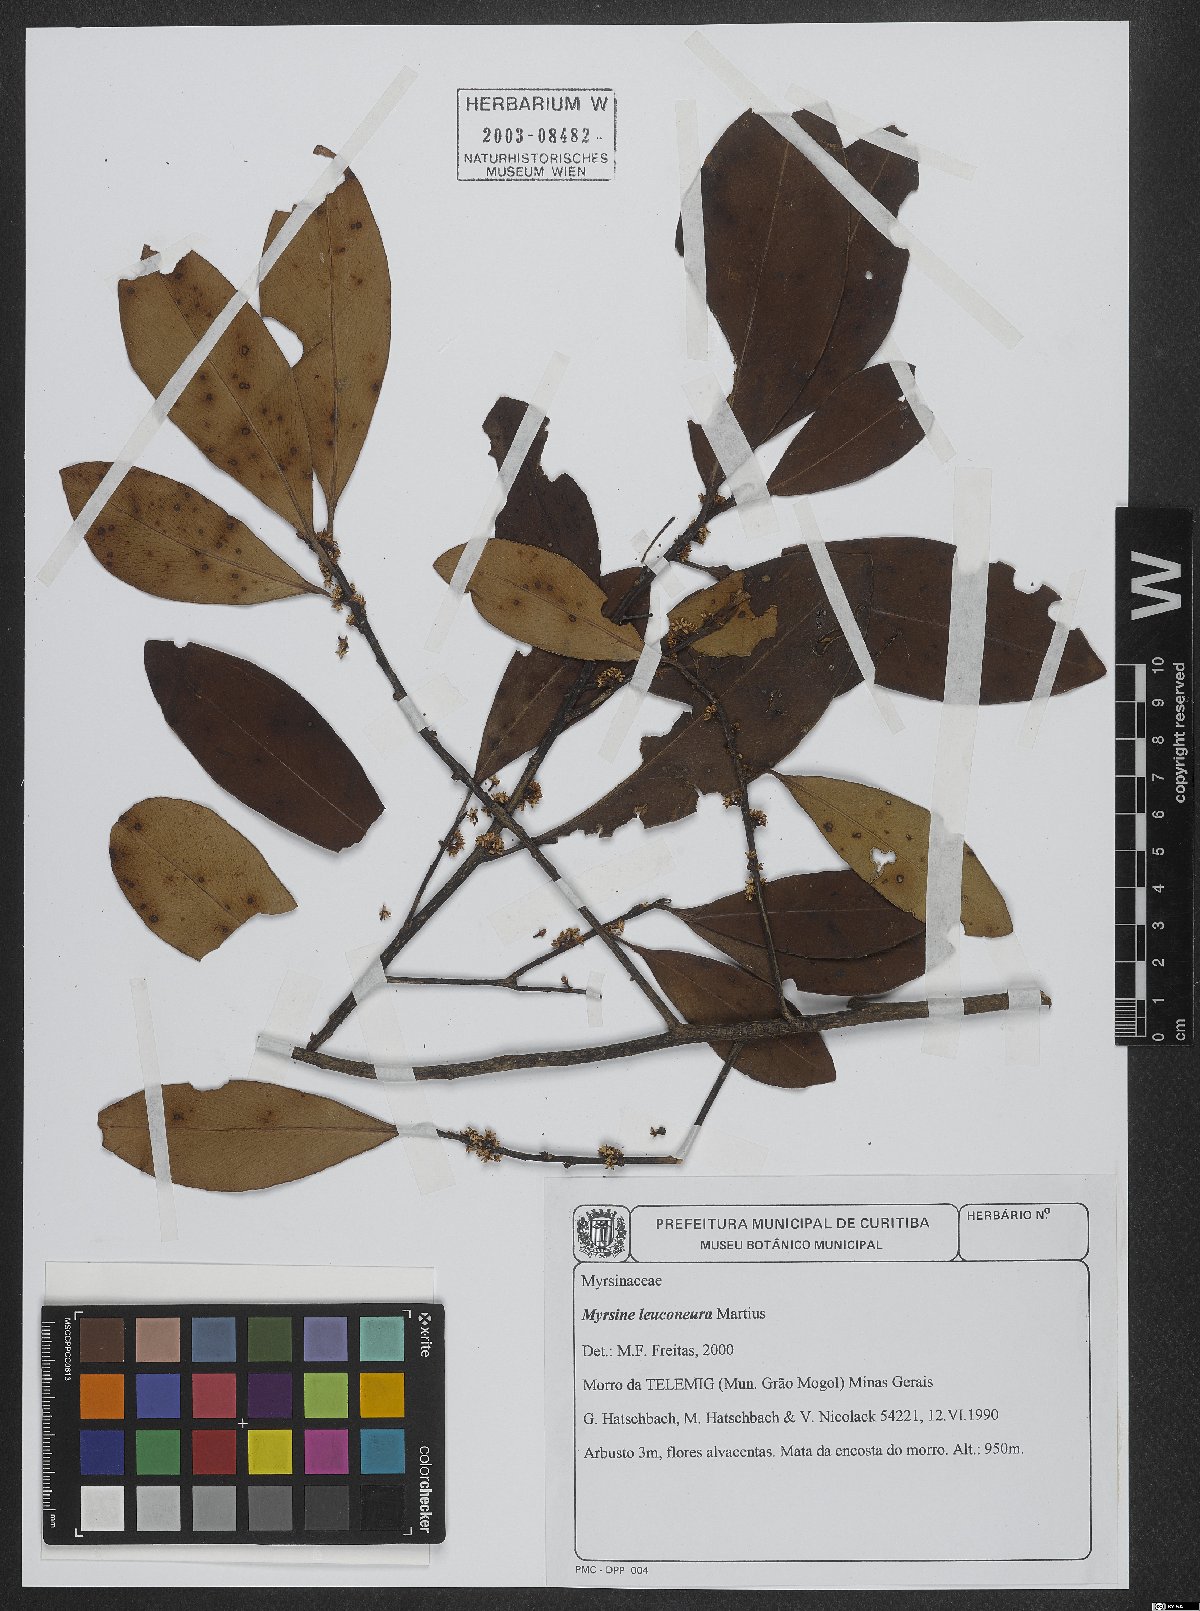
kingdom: Plantae
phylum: Tracheophyta
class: Magnoliopsida
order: Ericales
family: Primulaceae
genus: Myrsine
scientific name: Myrsine leuconeura
